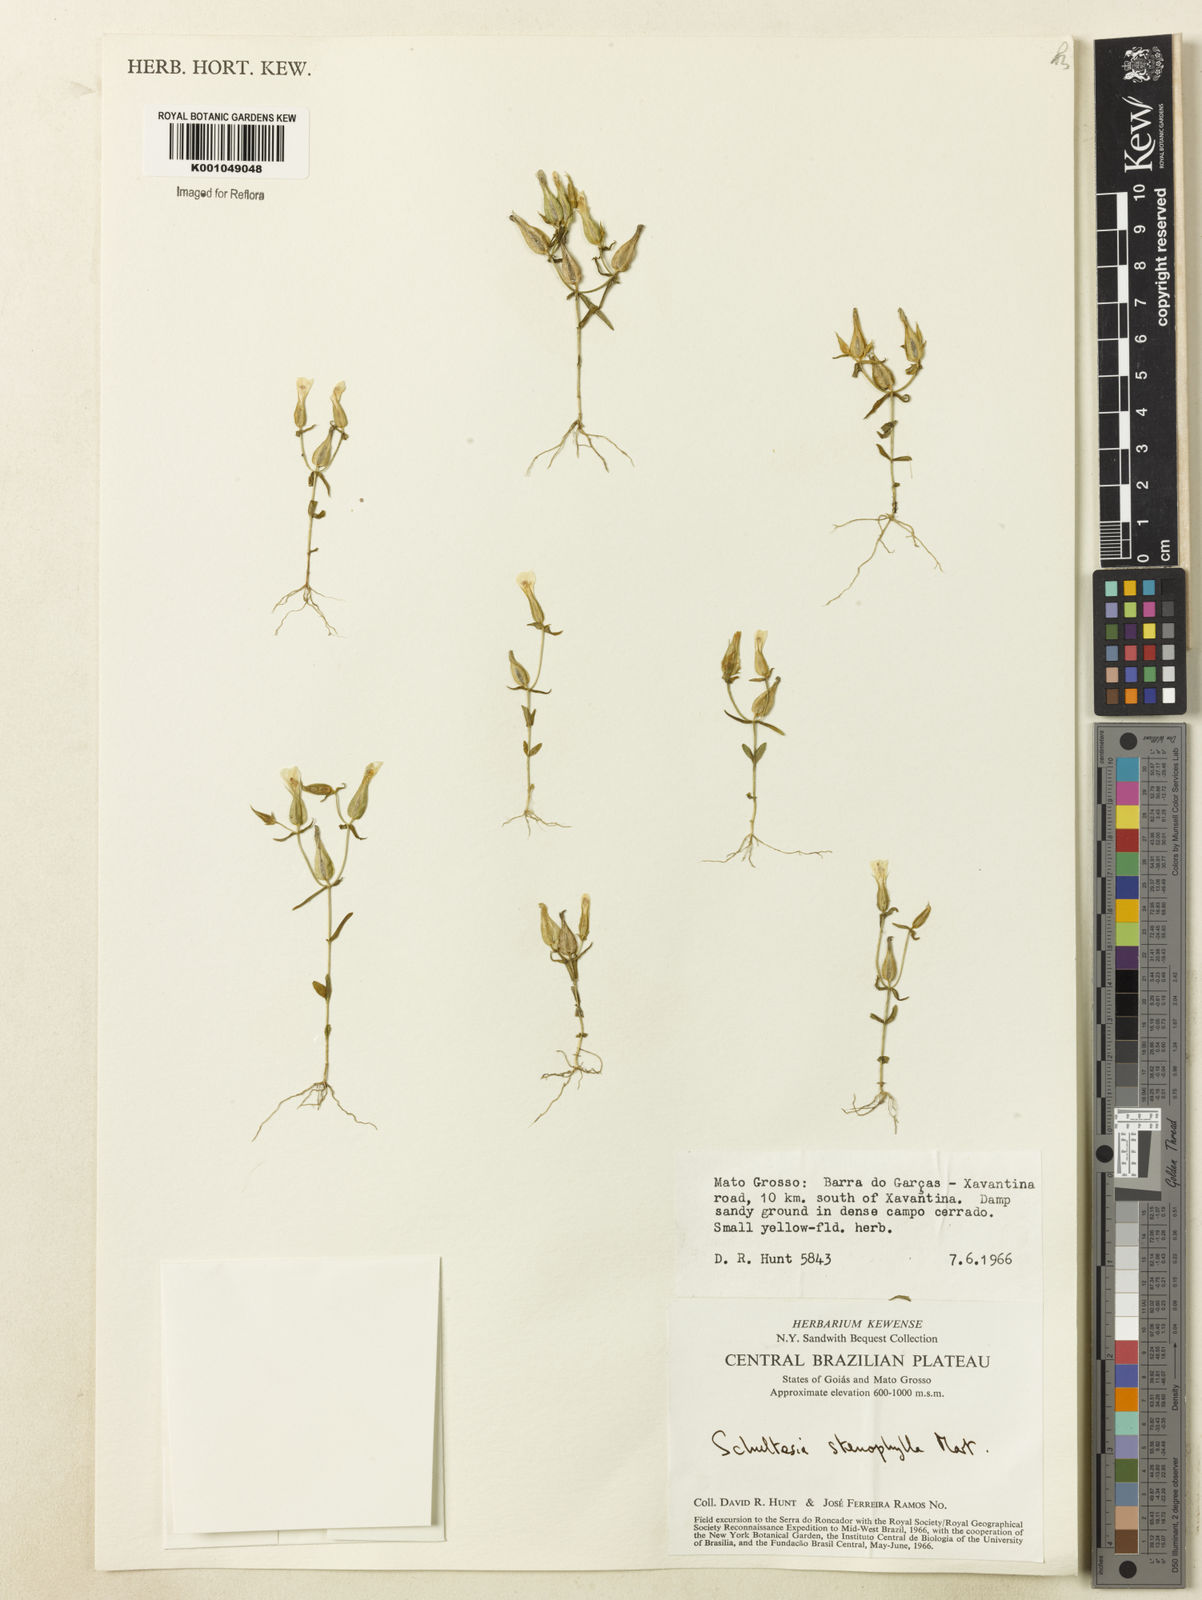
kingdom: Plantae
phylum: Tracheophyta
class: Magnoliopsida
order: Gentianales
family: Gentianaceae
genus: Schultesia
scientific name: Schultesia guianensis
